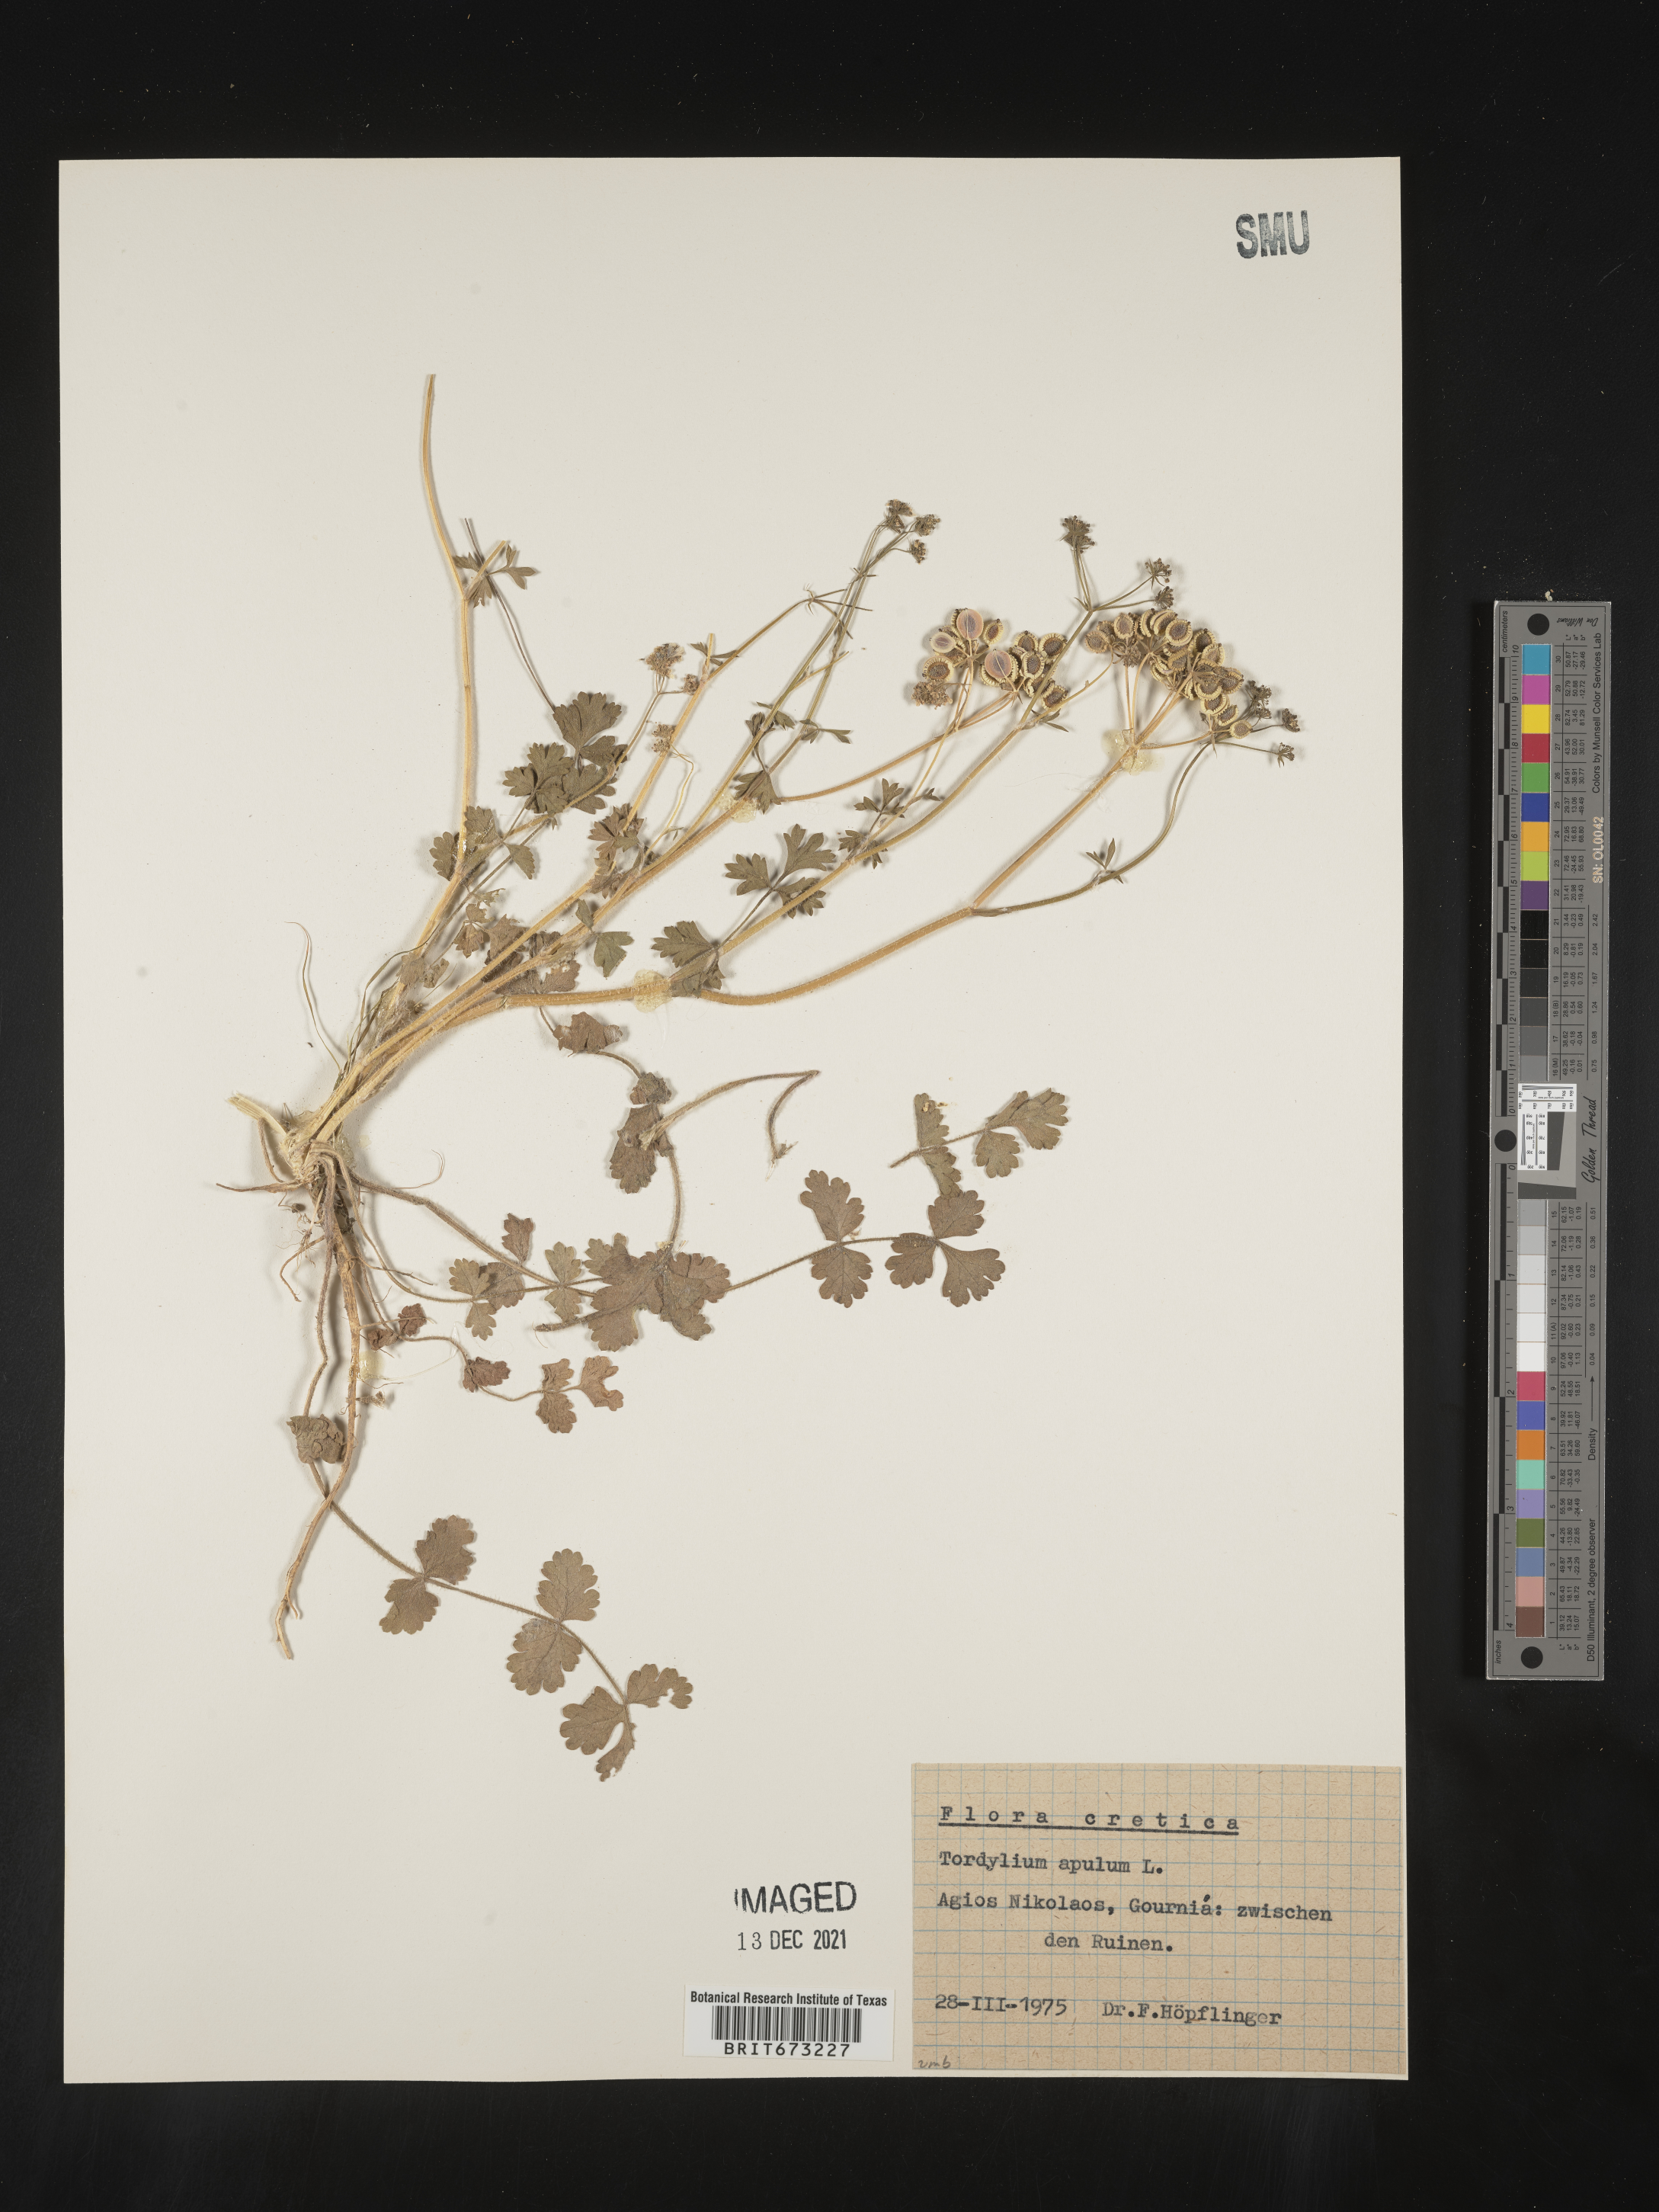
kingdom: Plantae
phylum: Tracheophyta
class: Magnoliopsida
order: Apiales
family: Apiaceae
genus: Tordylium
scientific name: Tordylium
